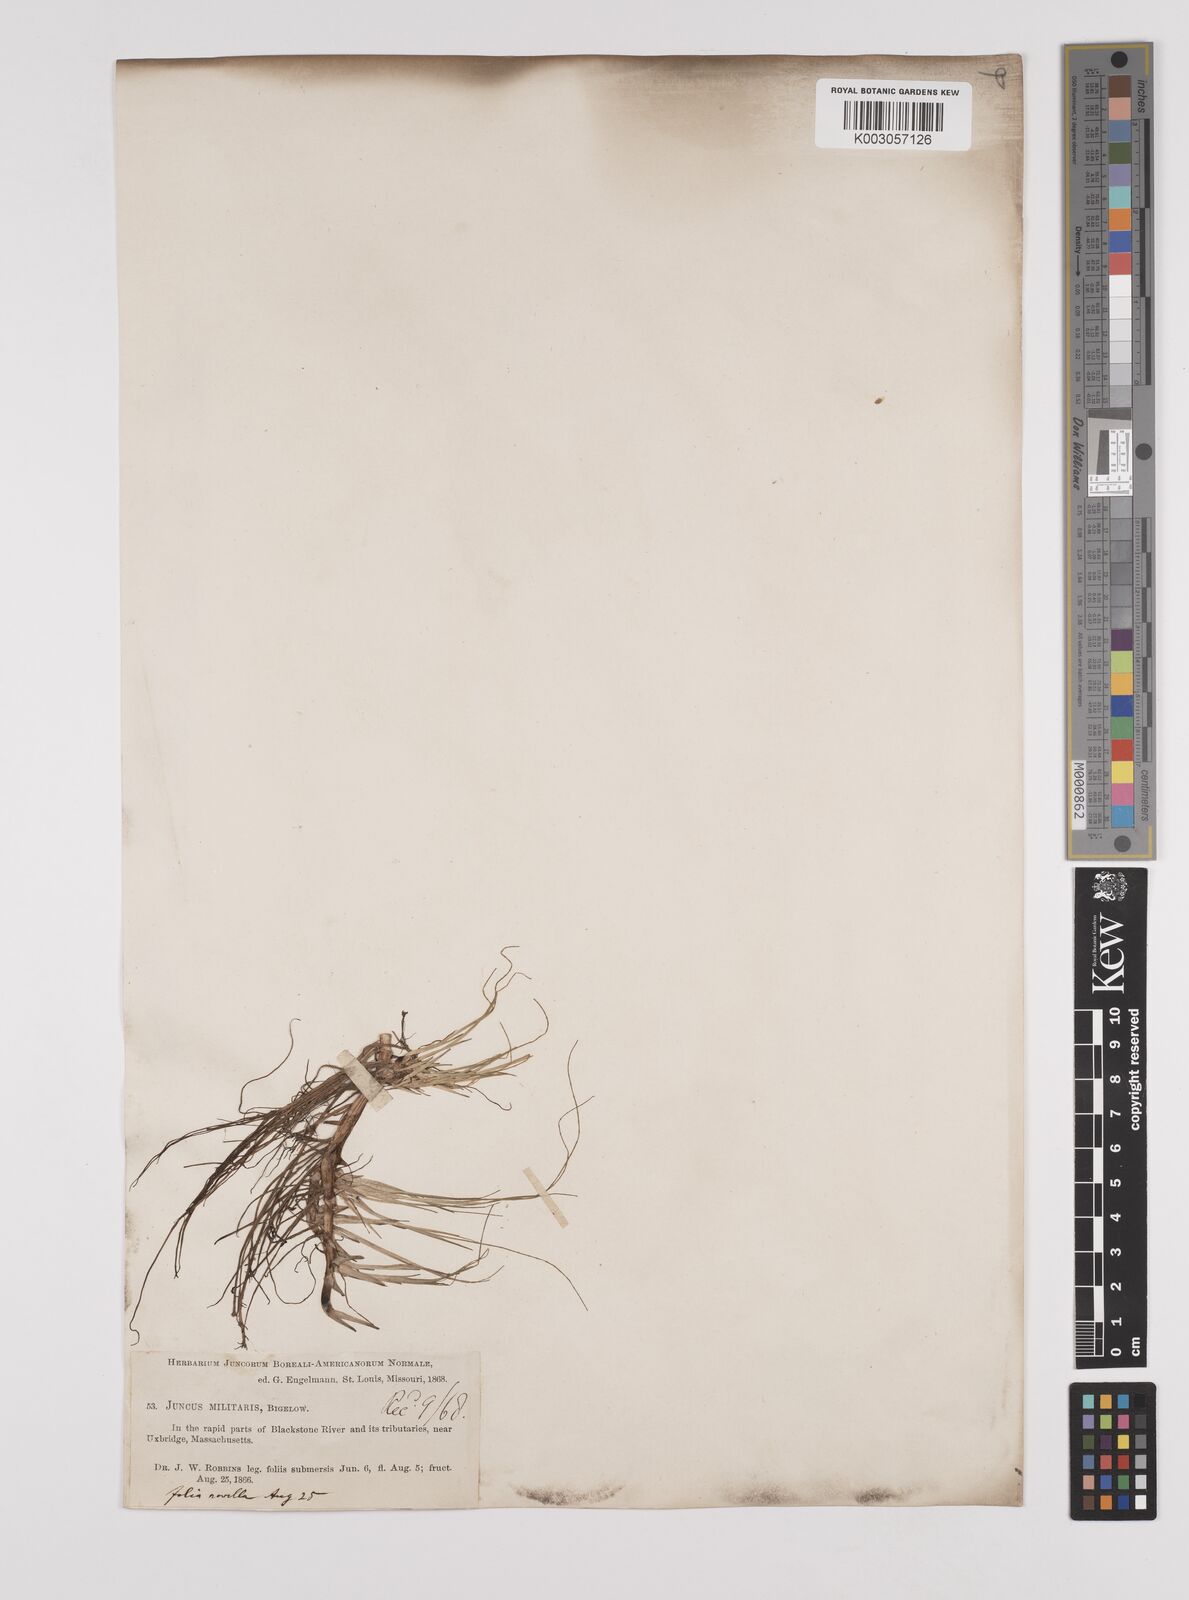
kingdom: Plantae
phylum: Tracheophyta
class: Liliopsida
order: Poales
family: Juncaceae
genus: Juncus
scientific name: Juncus militaris
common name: Bayonet rush
